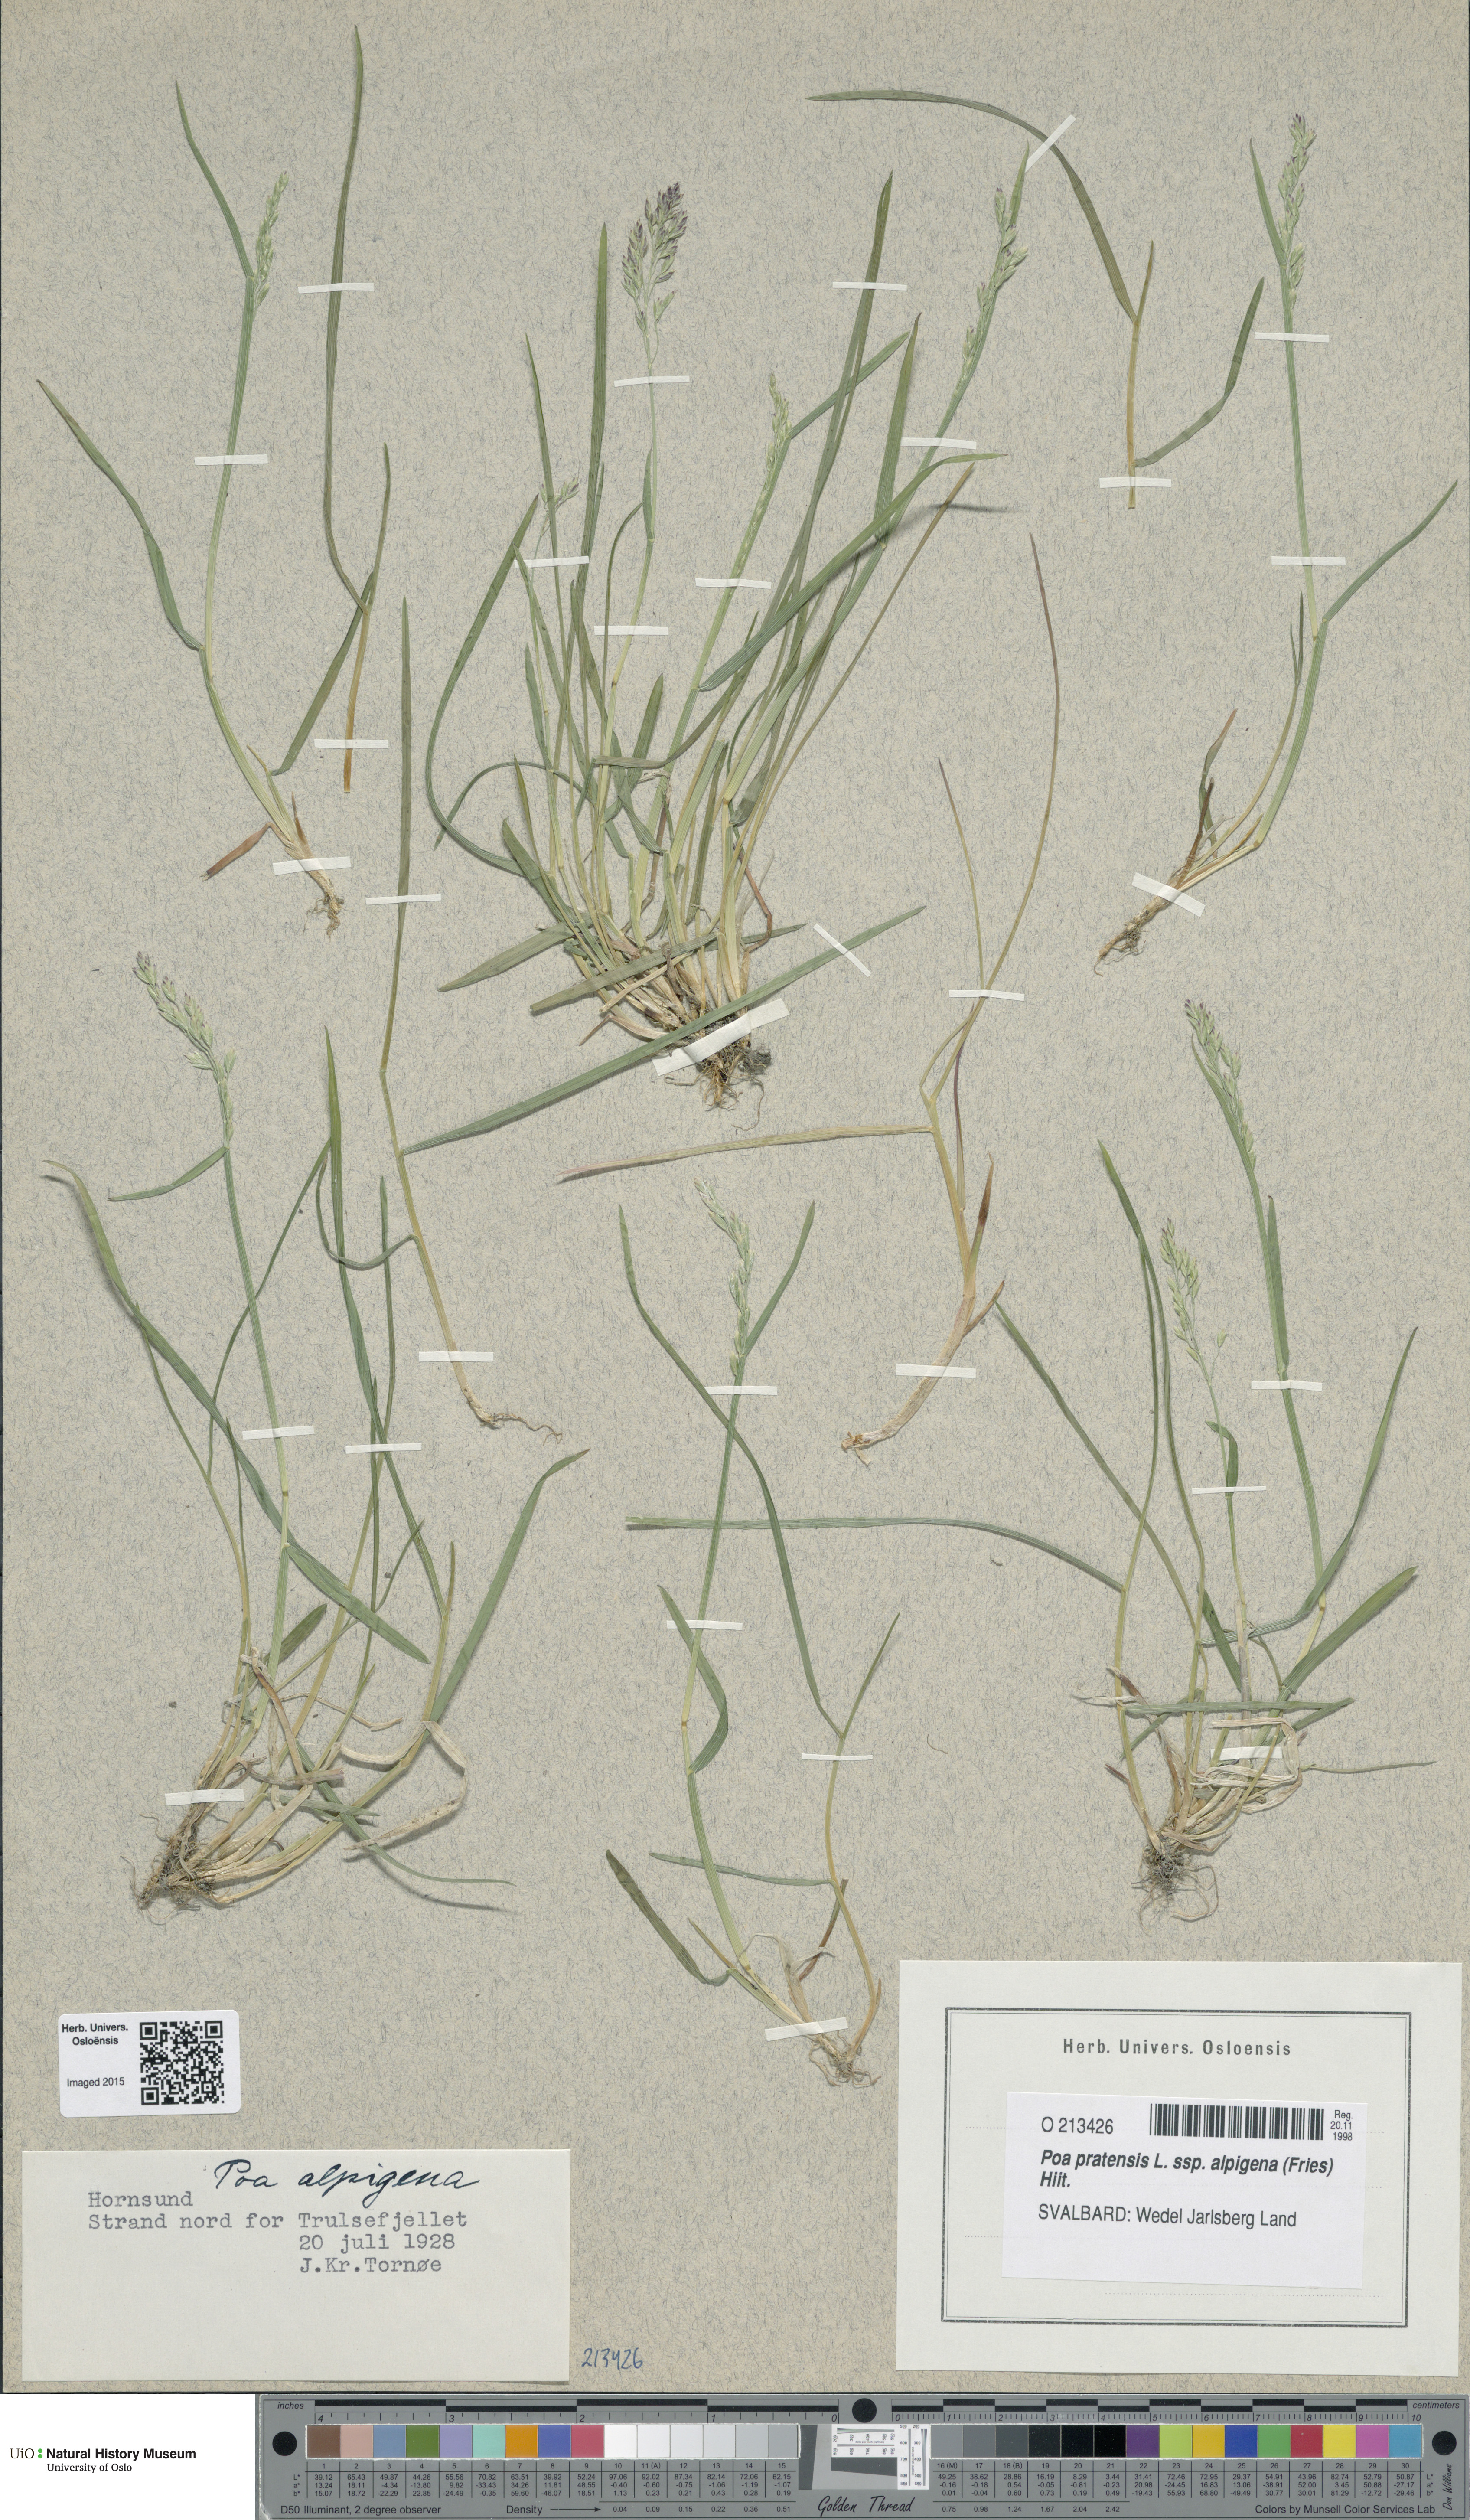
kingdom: Plantae
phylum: Tracheophyta
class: Liliopsida
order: Poales
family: Poaceae
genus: Poa
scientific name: Poa alpigena
